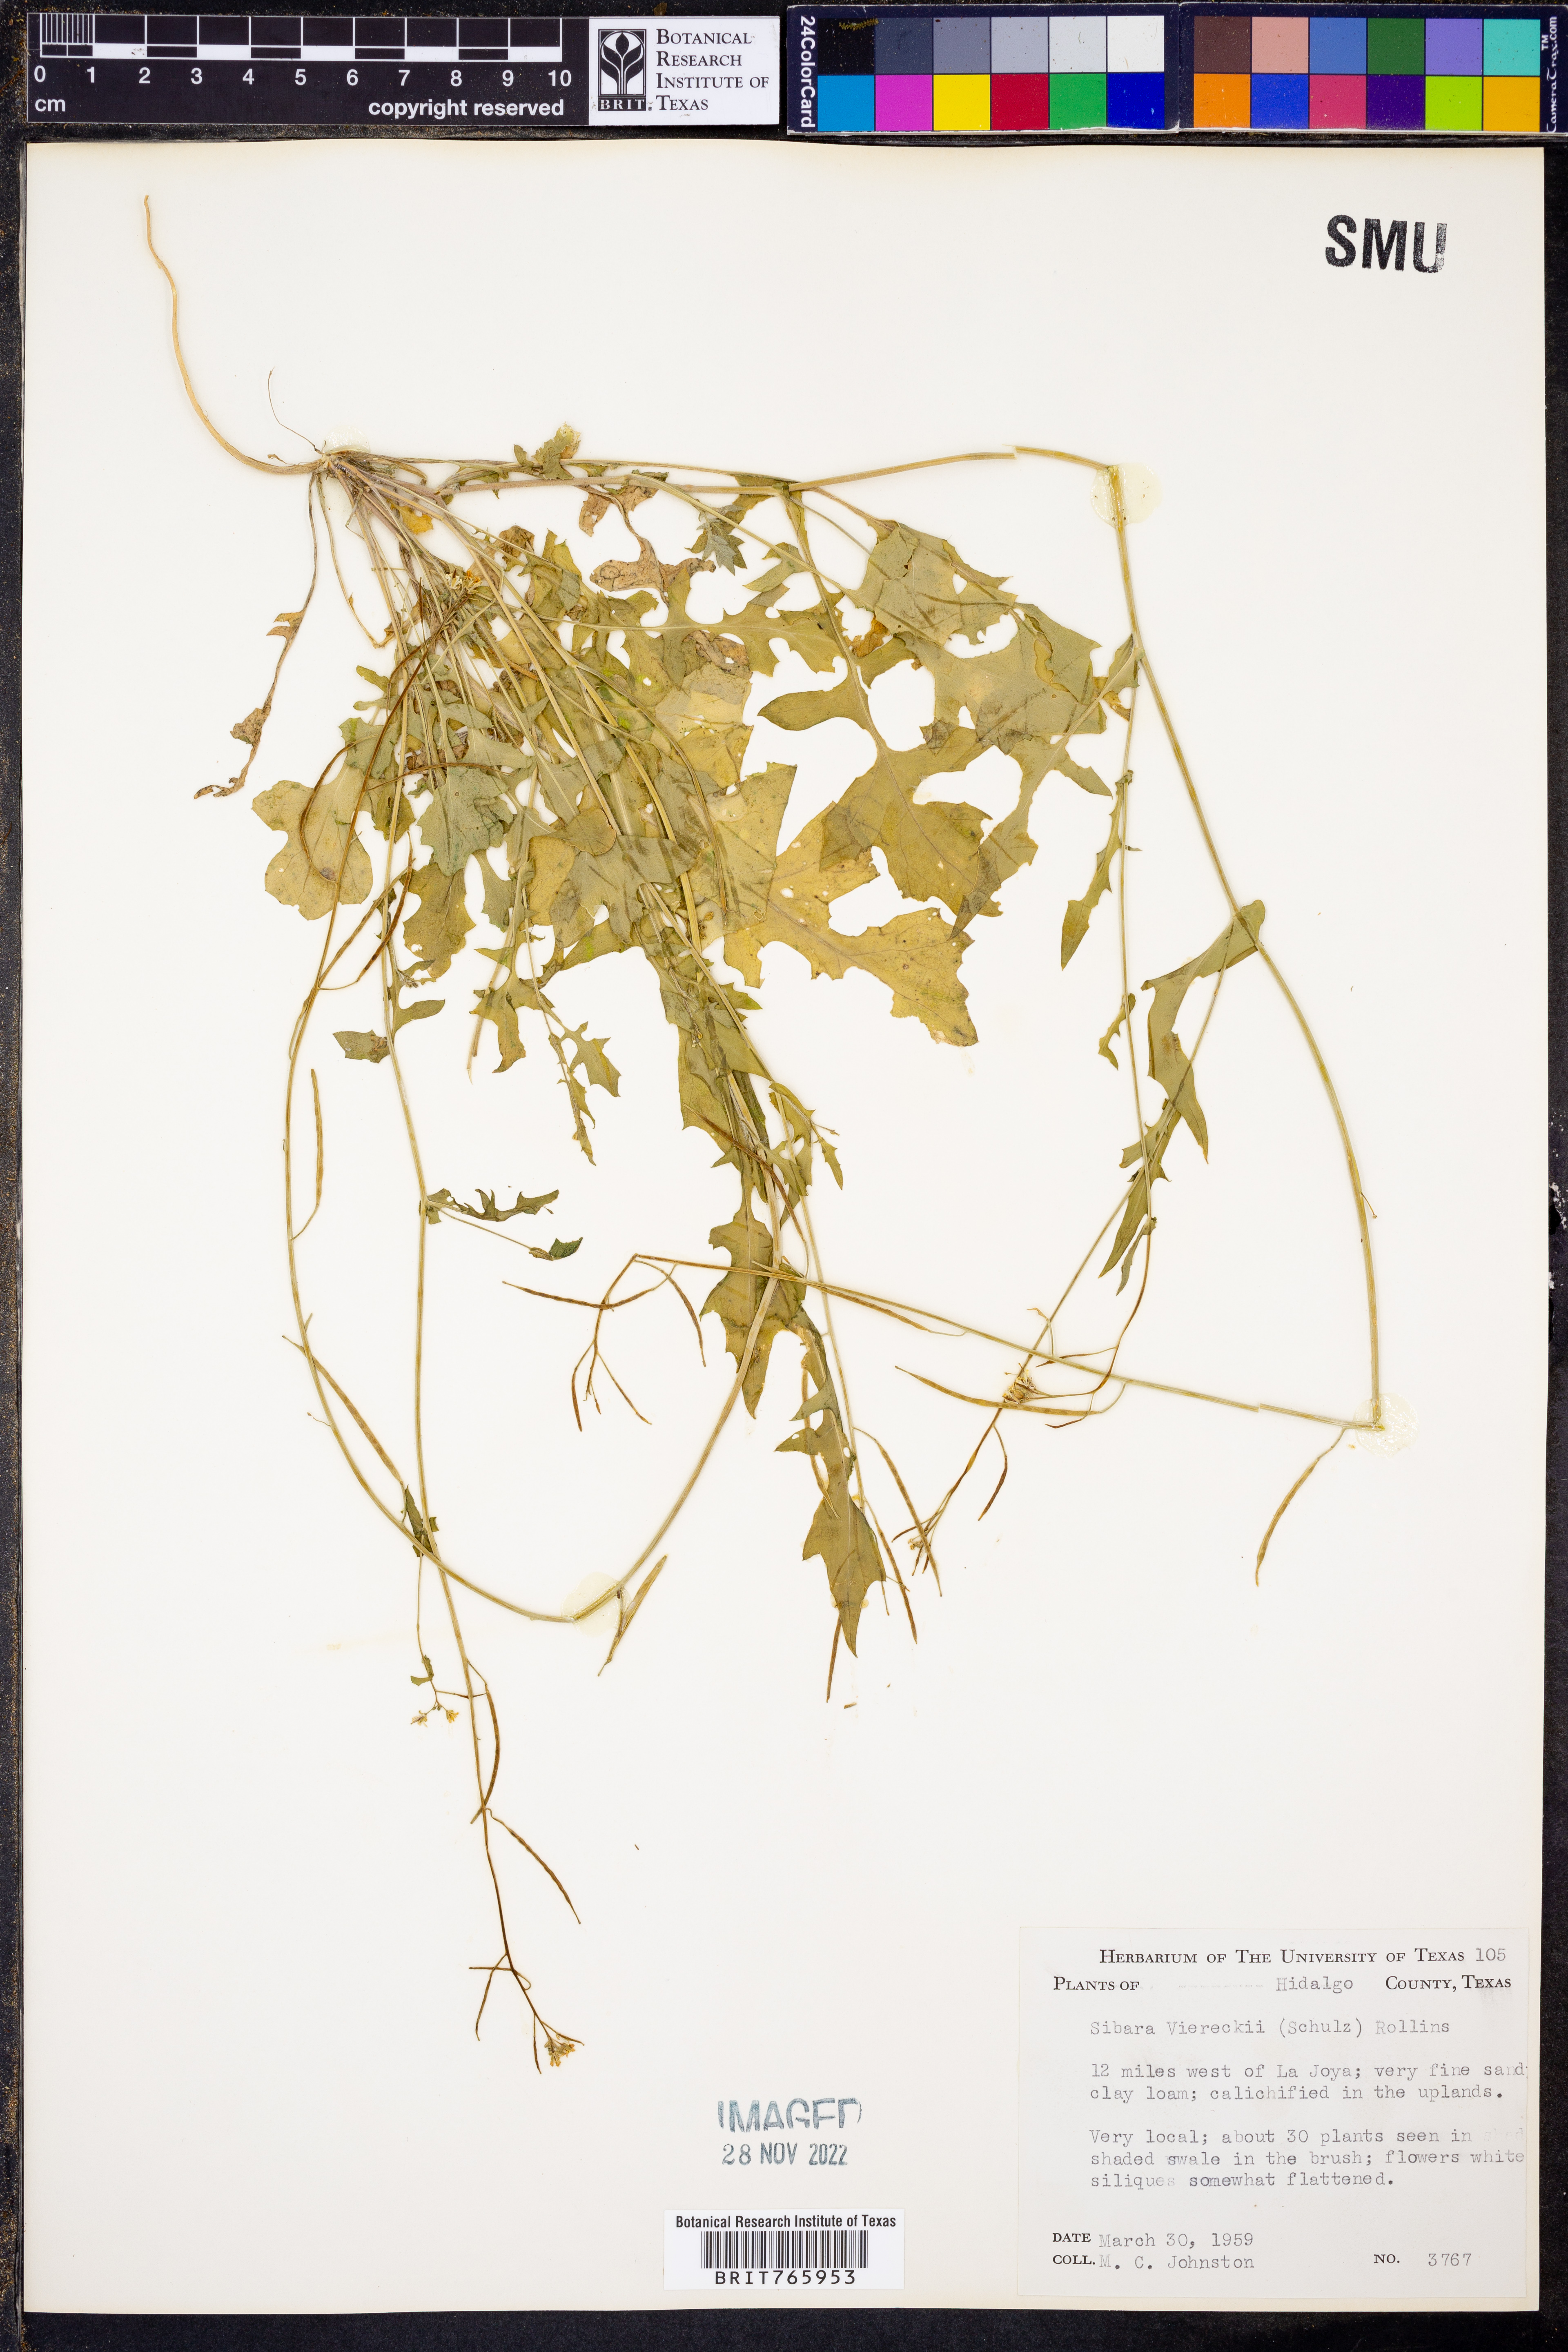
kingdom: Plantae
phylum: Tracheophyta
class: Magnoliopsida
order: Brassicales
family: Brassicaceae
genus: Phravenia
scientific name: Phravenia viereckii
